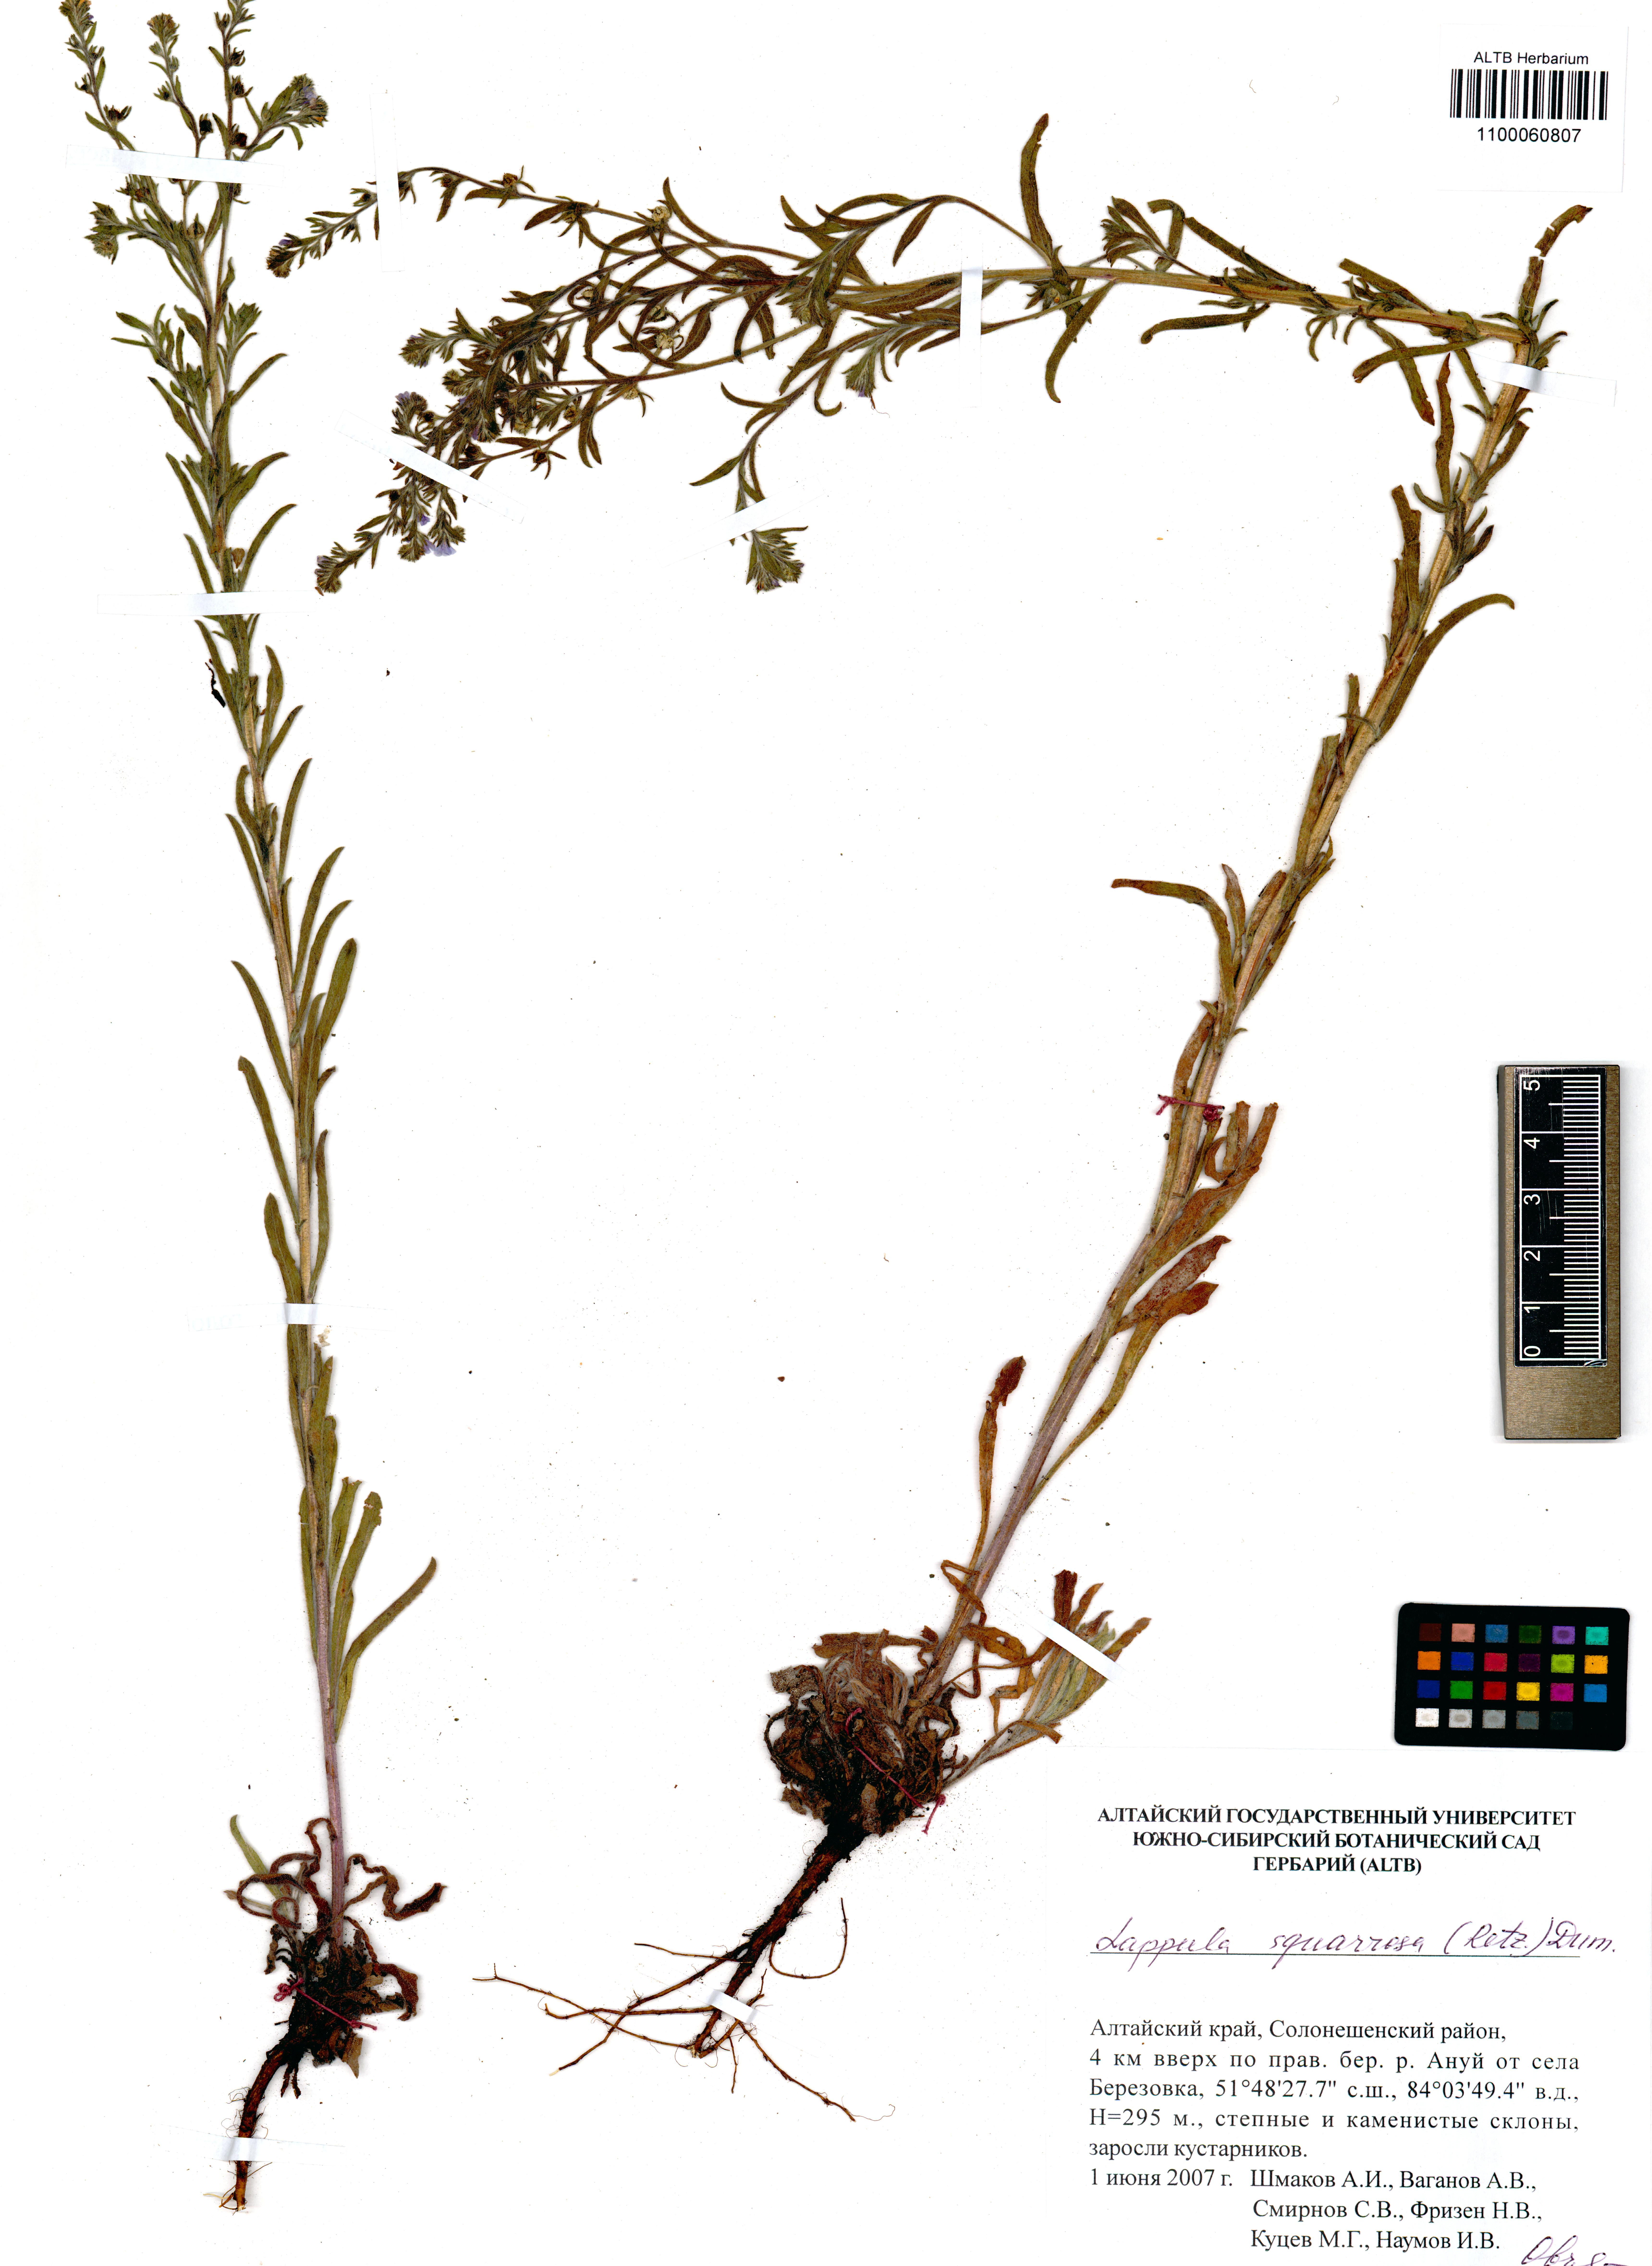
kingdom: Plantae
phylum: Tracheophyta
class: Magnoliopsida
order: Boraginales
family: Boraginaceae
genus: Lappula
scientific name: Lappula squarrosa
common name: European stickseed
